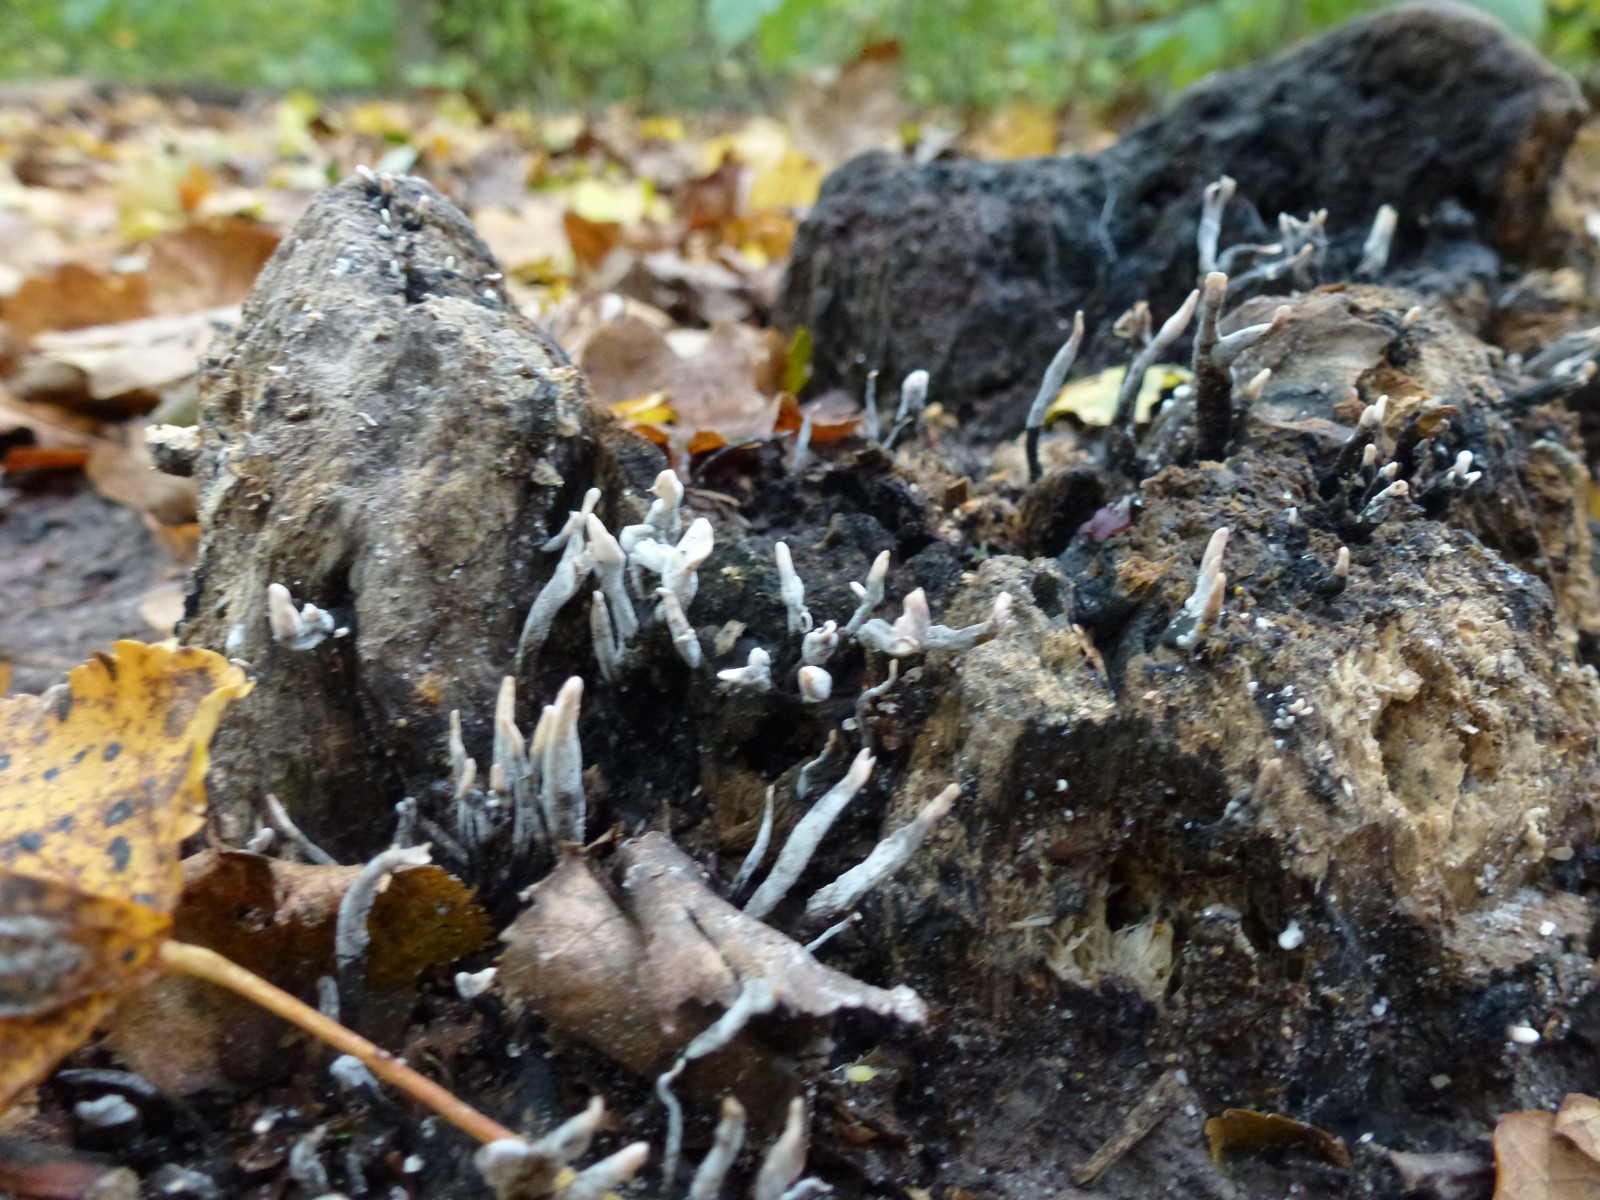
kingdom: Fungi
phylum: Ascomycota
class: Sordariomycetes
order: Xylariales
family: Xylariaceae
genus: Xylaria
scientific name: Xylaria hypoxylon
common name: grenet stødsvamp
